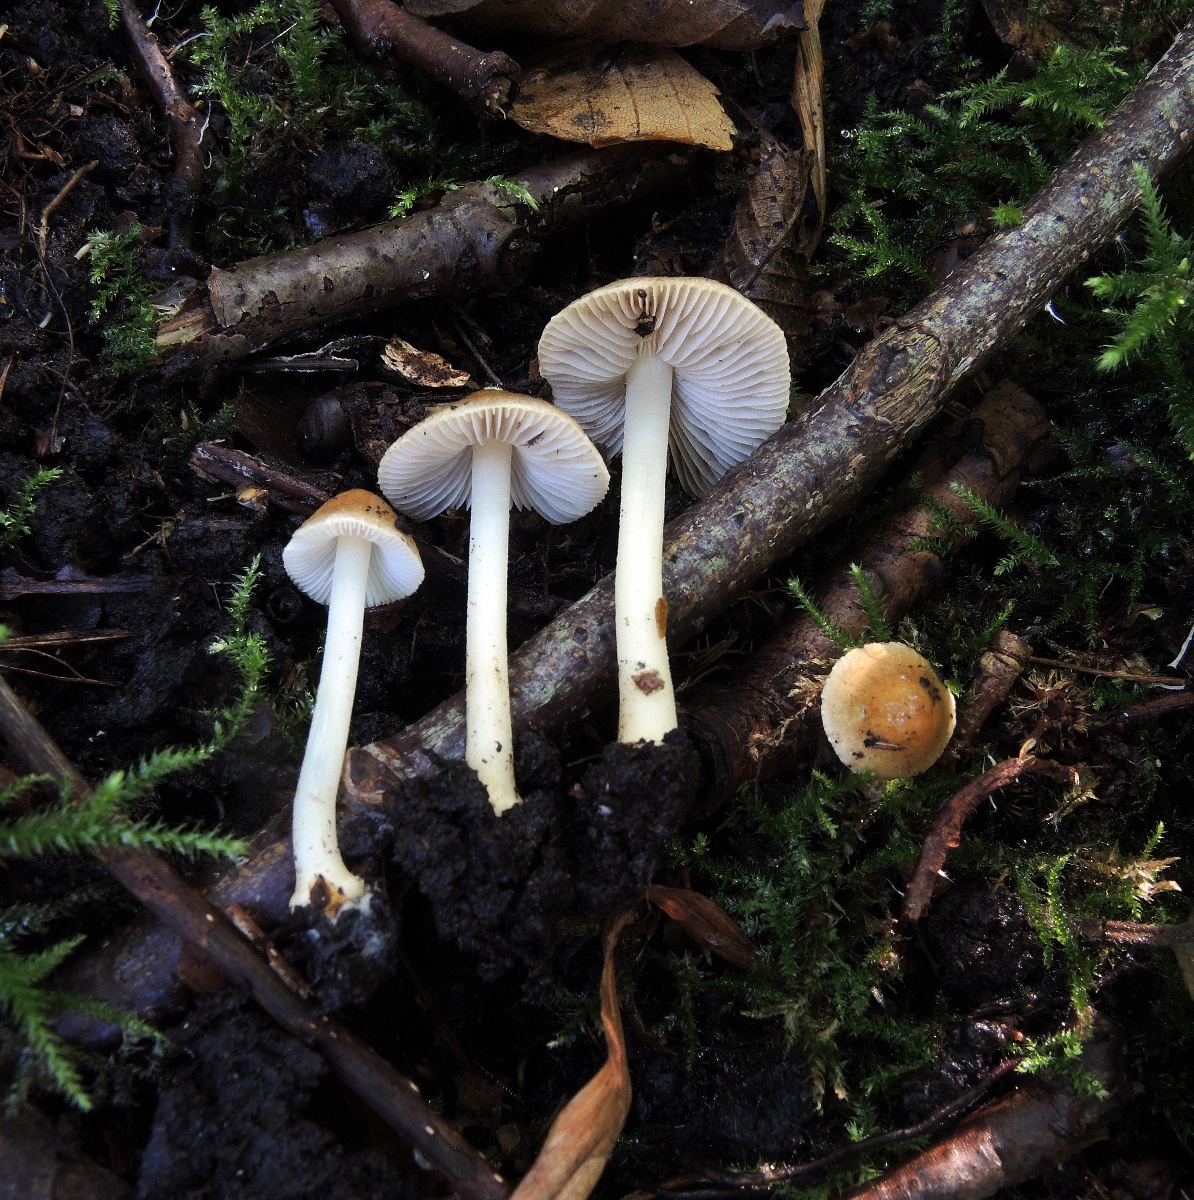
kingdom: Fungi
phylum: Basidiomycota
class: Agaricomycetes
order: Agaricales
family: Inocybaceae
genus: Inocybe
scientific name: Inocybe mixtilis
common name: randknoldet trævlhat
